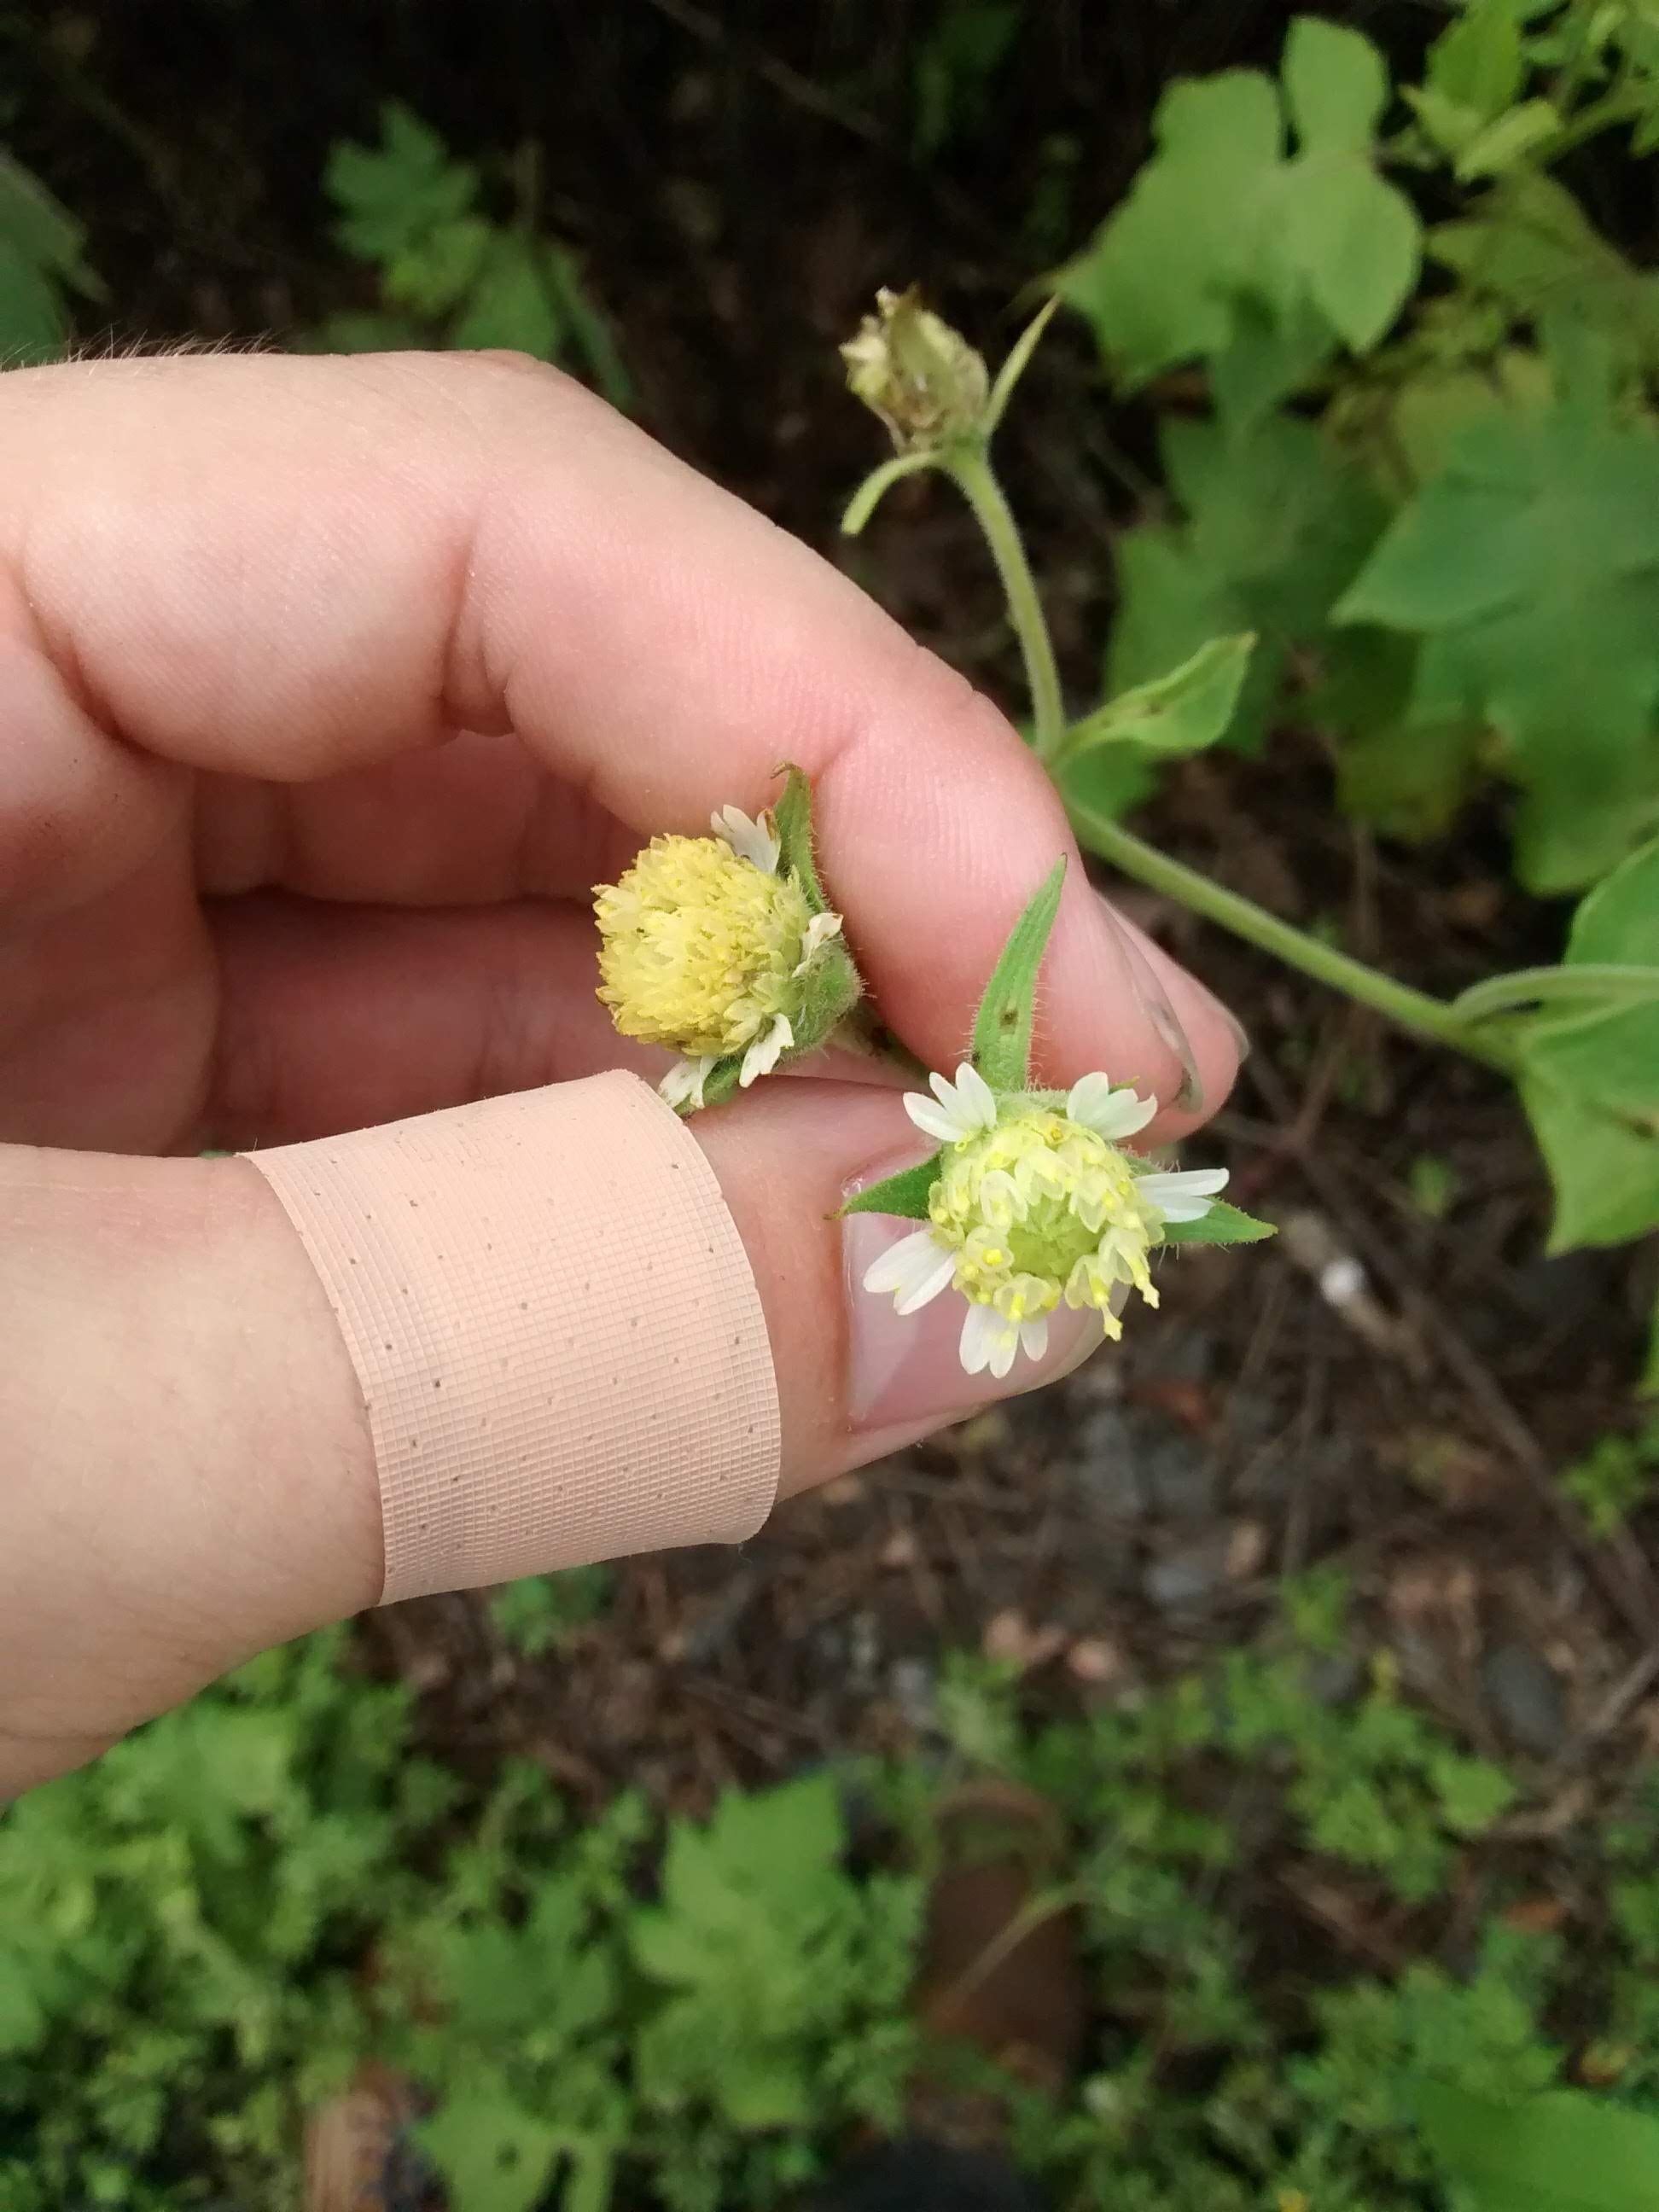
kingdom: Plantae
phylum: Tracheophyta
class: Magnoliopsida
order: Asterales
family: Asteraceae
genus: Polymnia
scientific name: Polymnia canadensis
